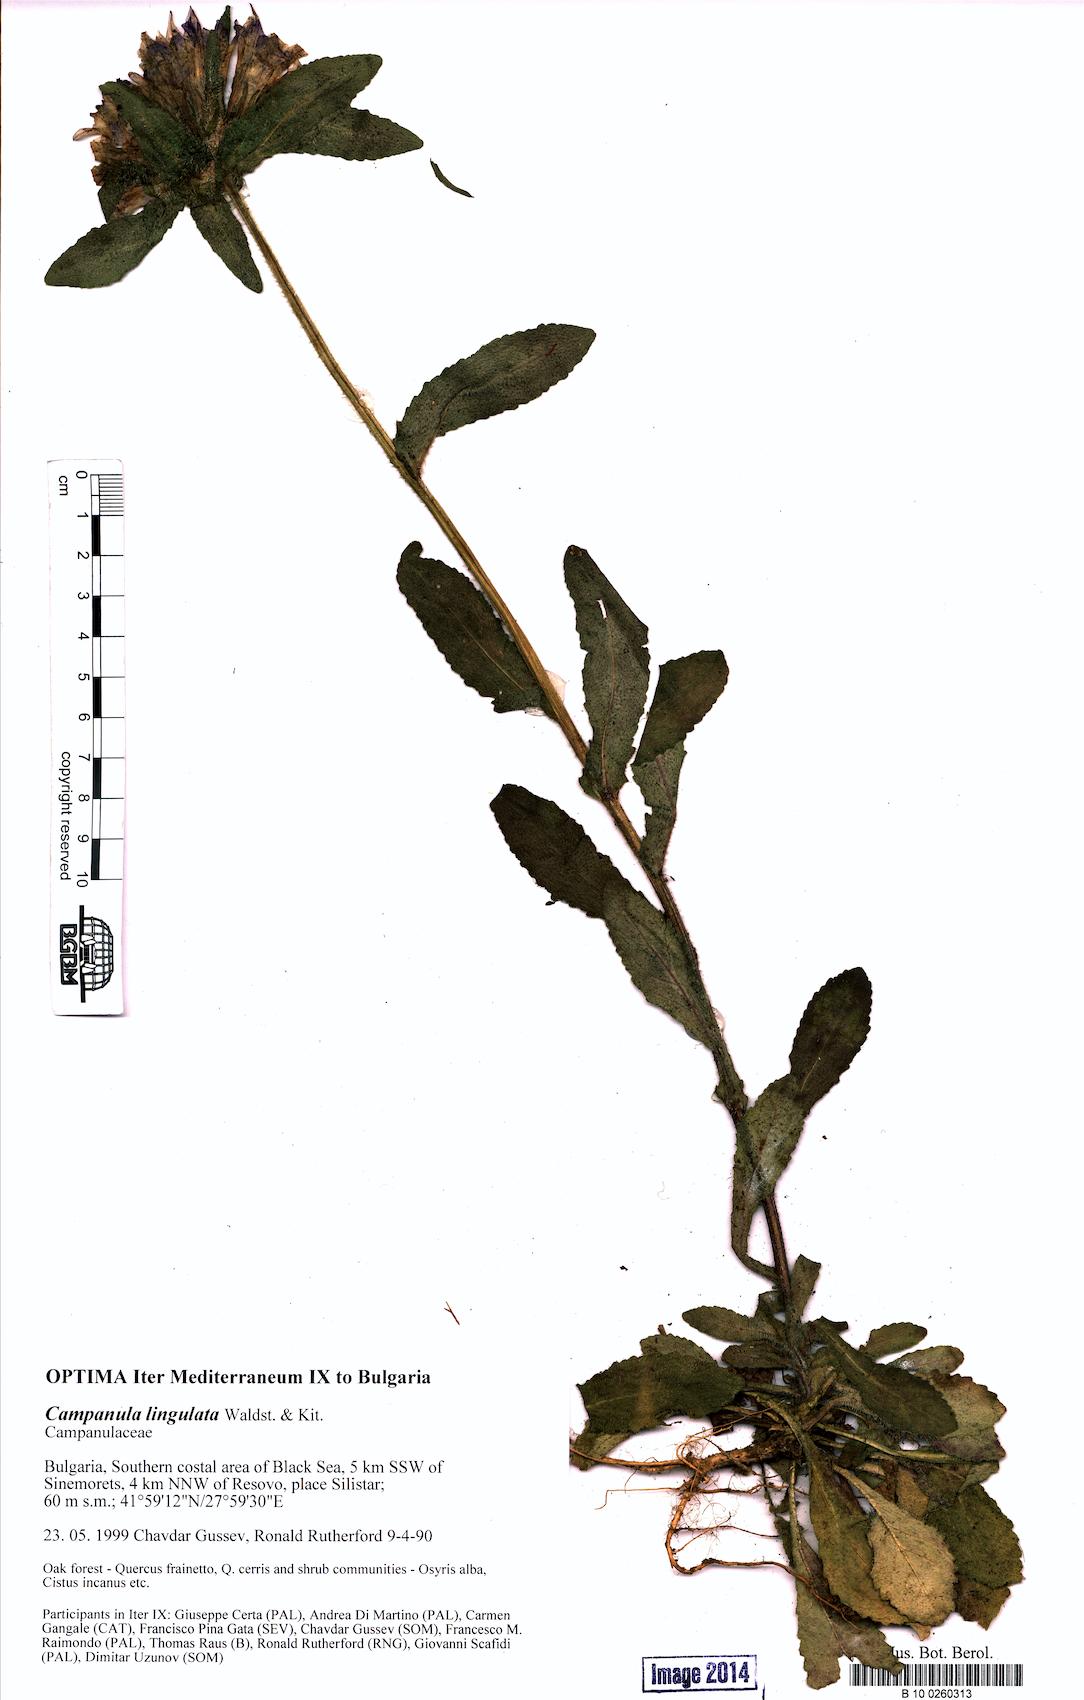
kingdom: Plantae
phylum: Tracheophyta
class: Magnoliopsida
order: Asterales
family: Campanulaceae
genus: Campanula
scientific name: Campanula lingulata
